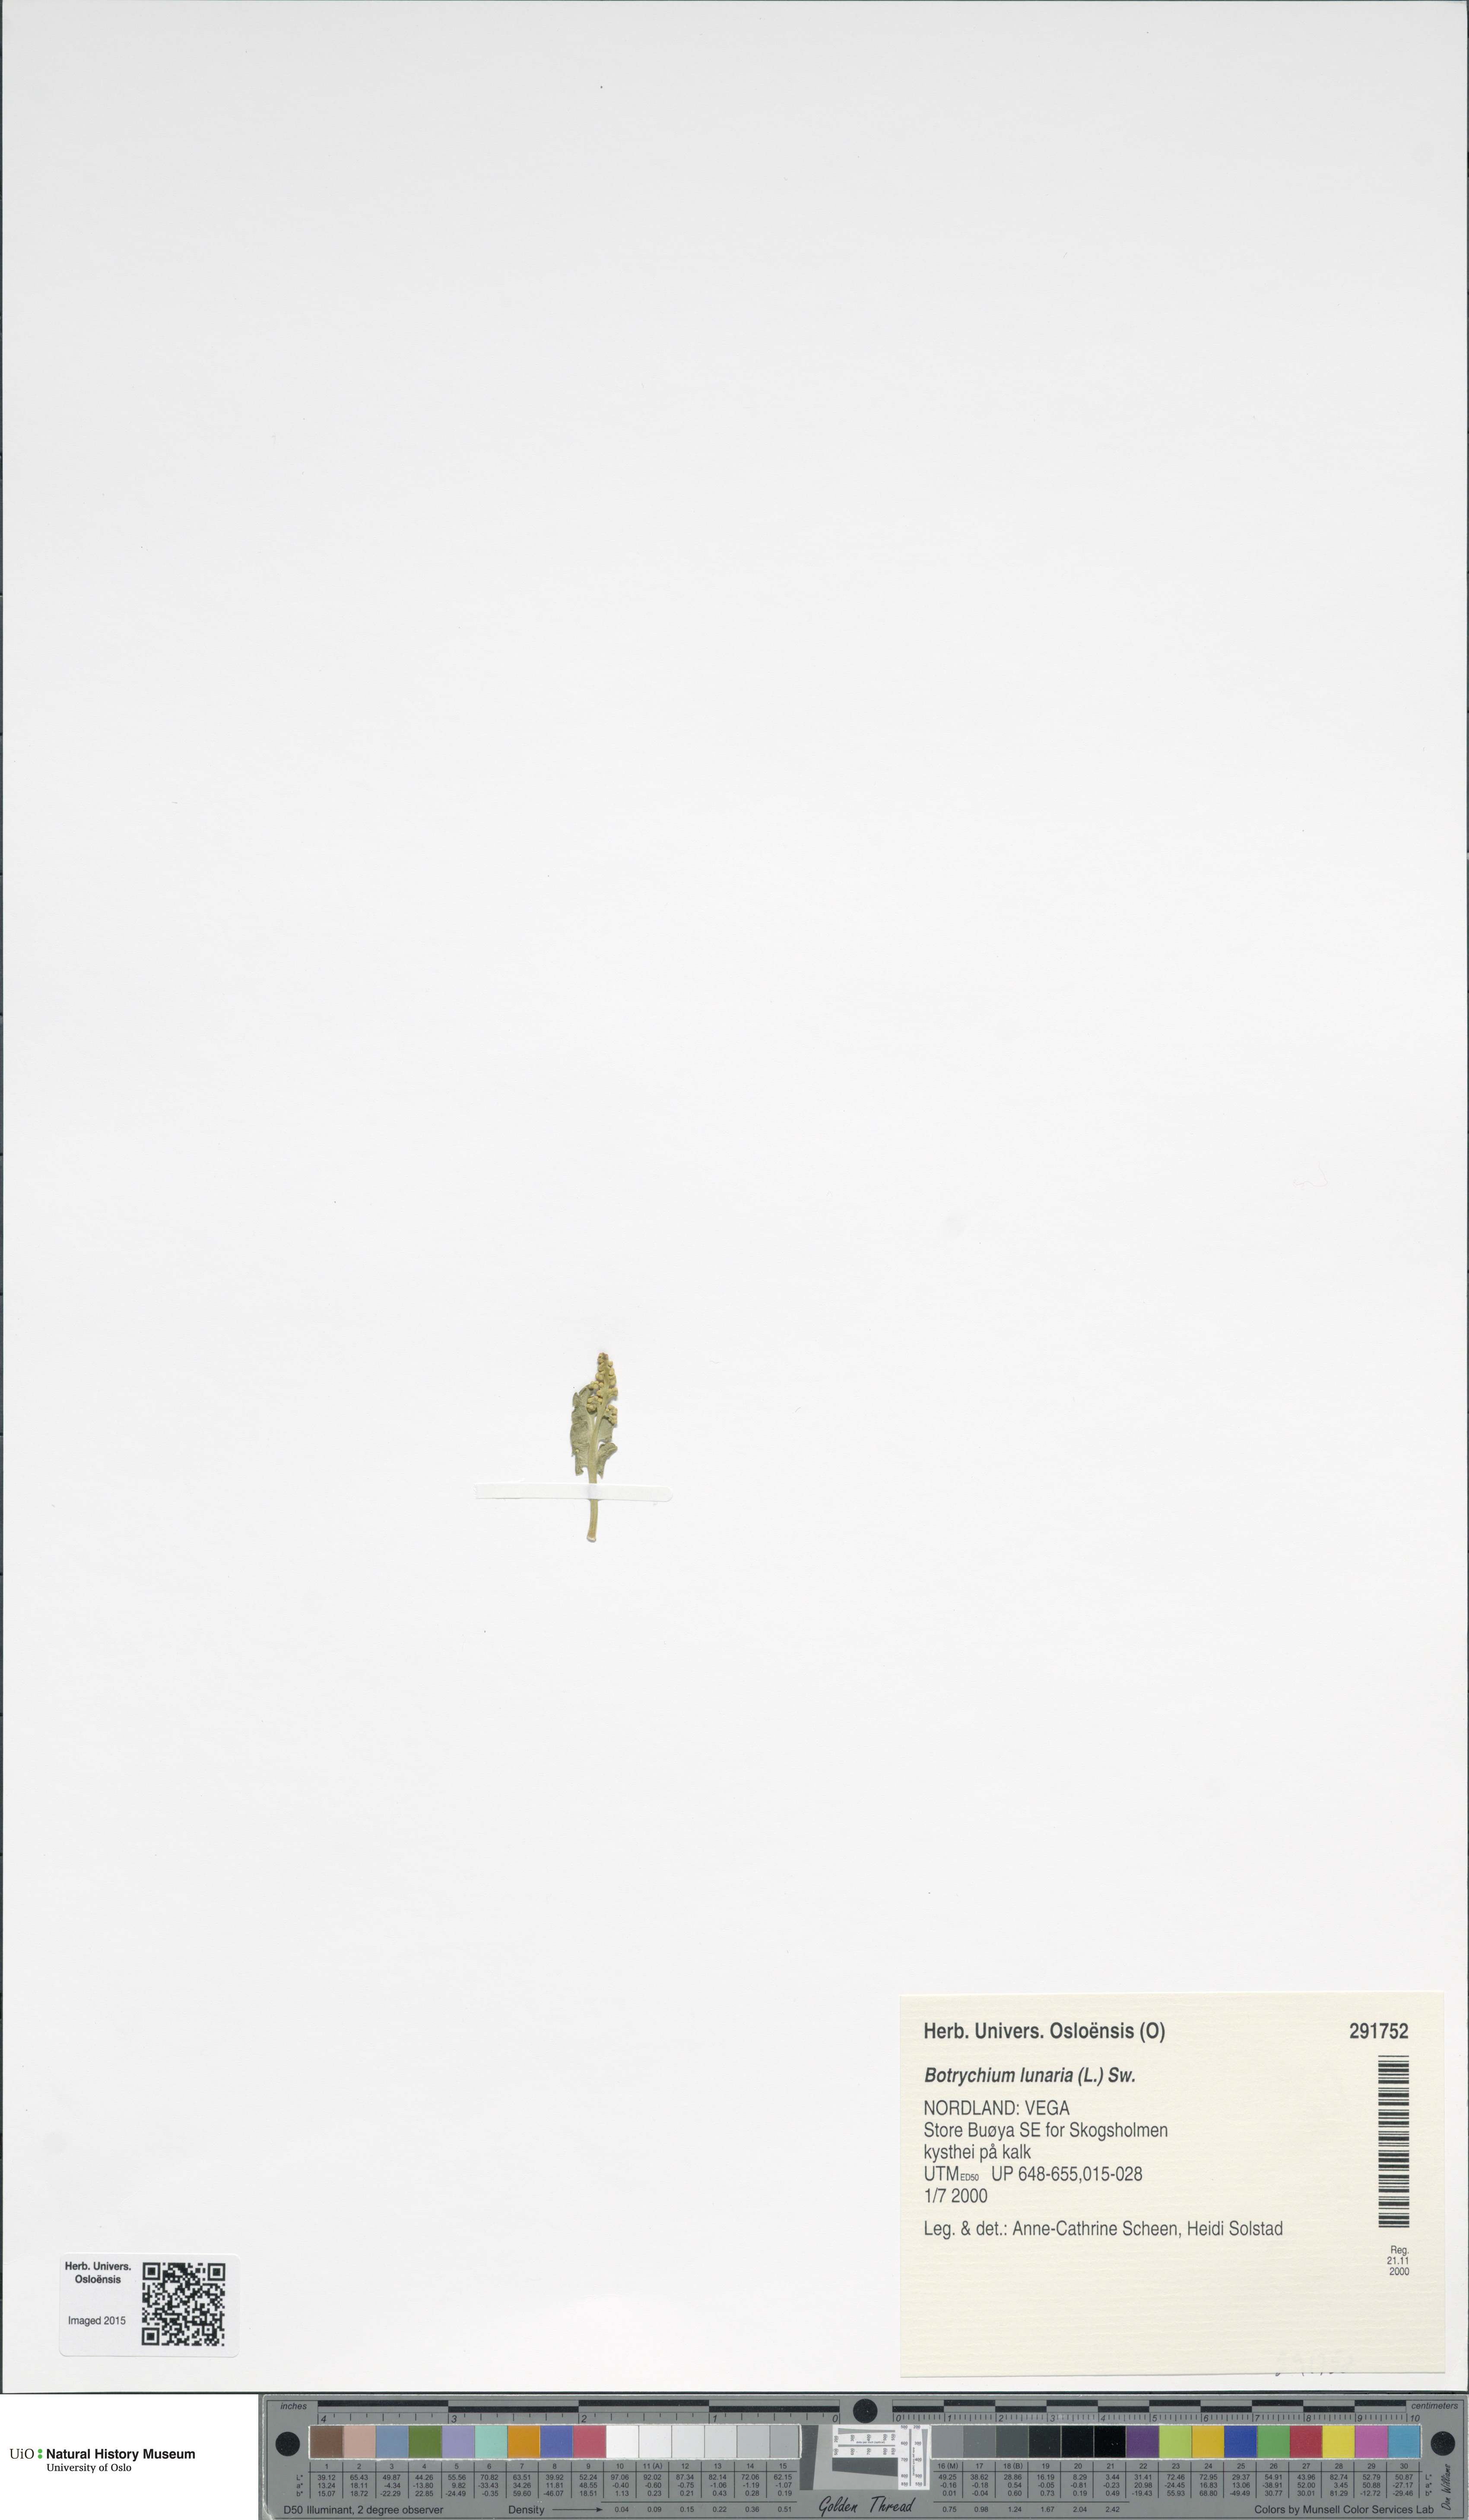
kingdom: Plantae
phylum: Tracheophyta
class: Polypodiopsida
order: Ophioglossales
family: Ophioglossaceae
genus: Botrychium
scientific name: Botrychium lunaria
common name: Moonwort
